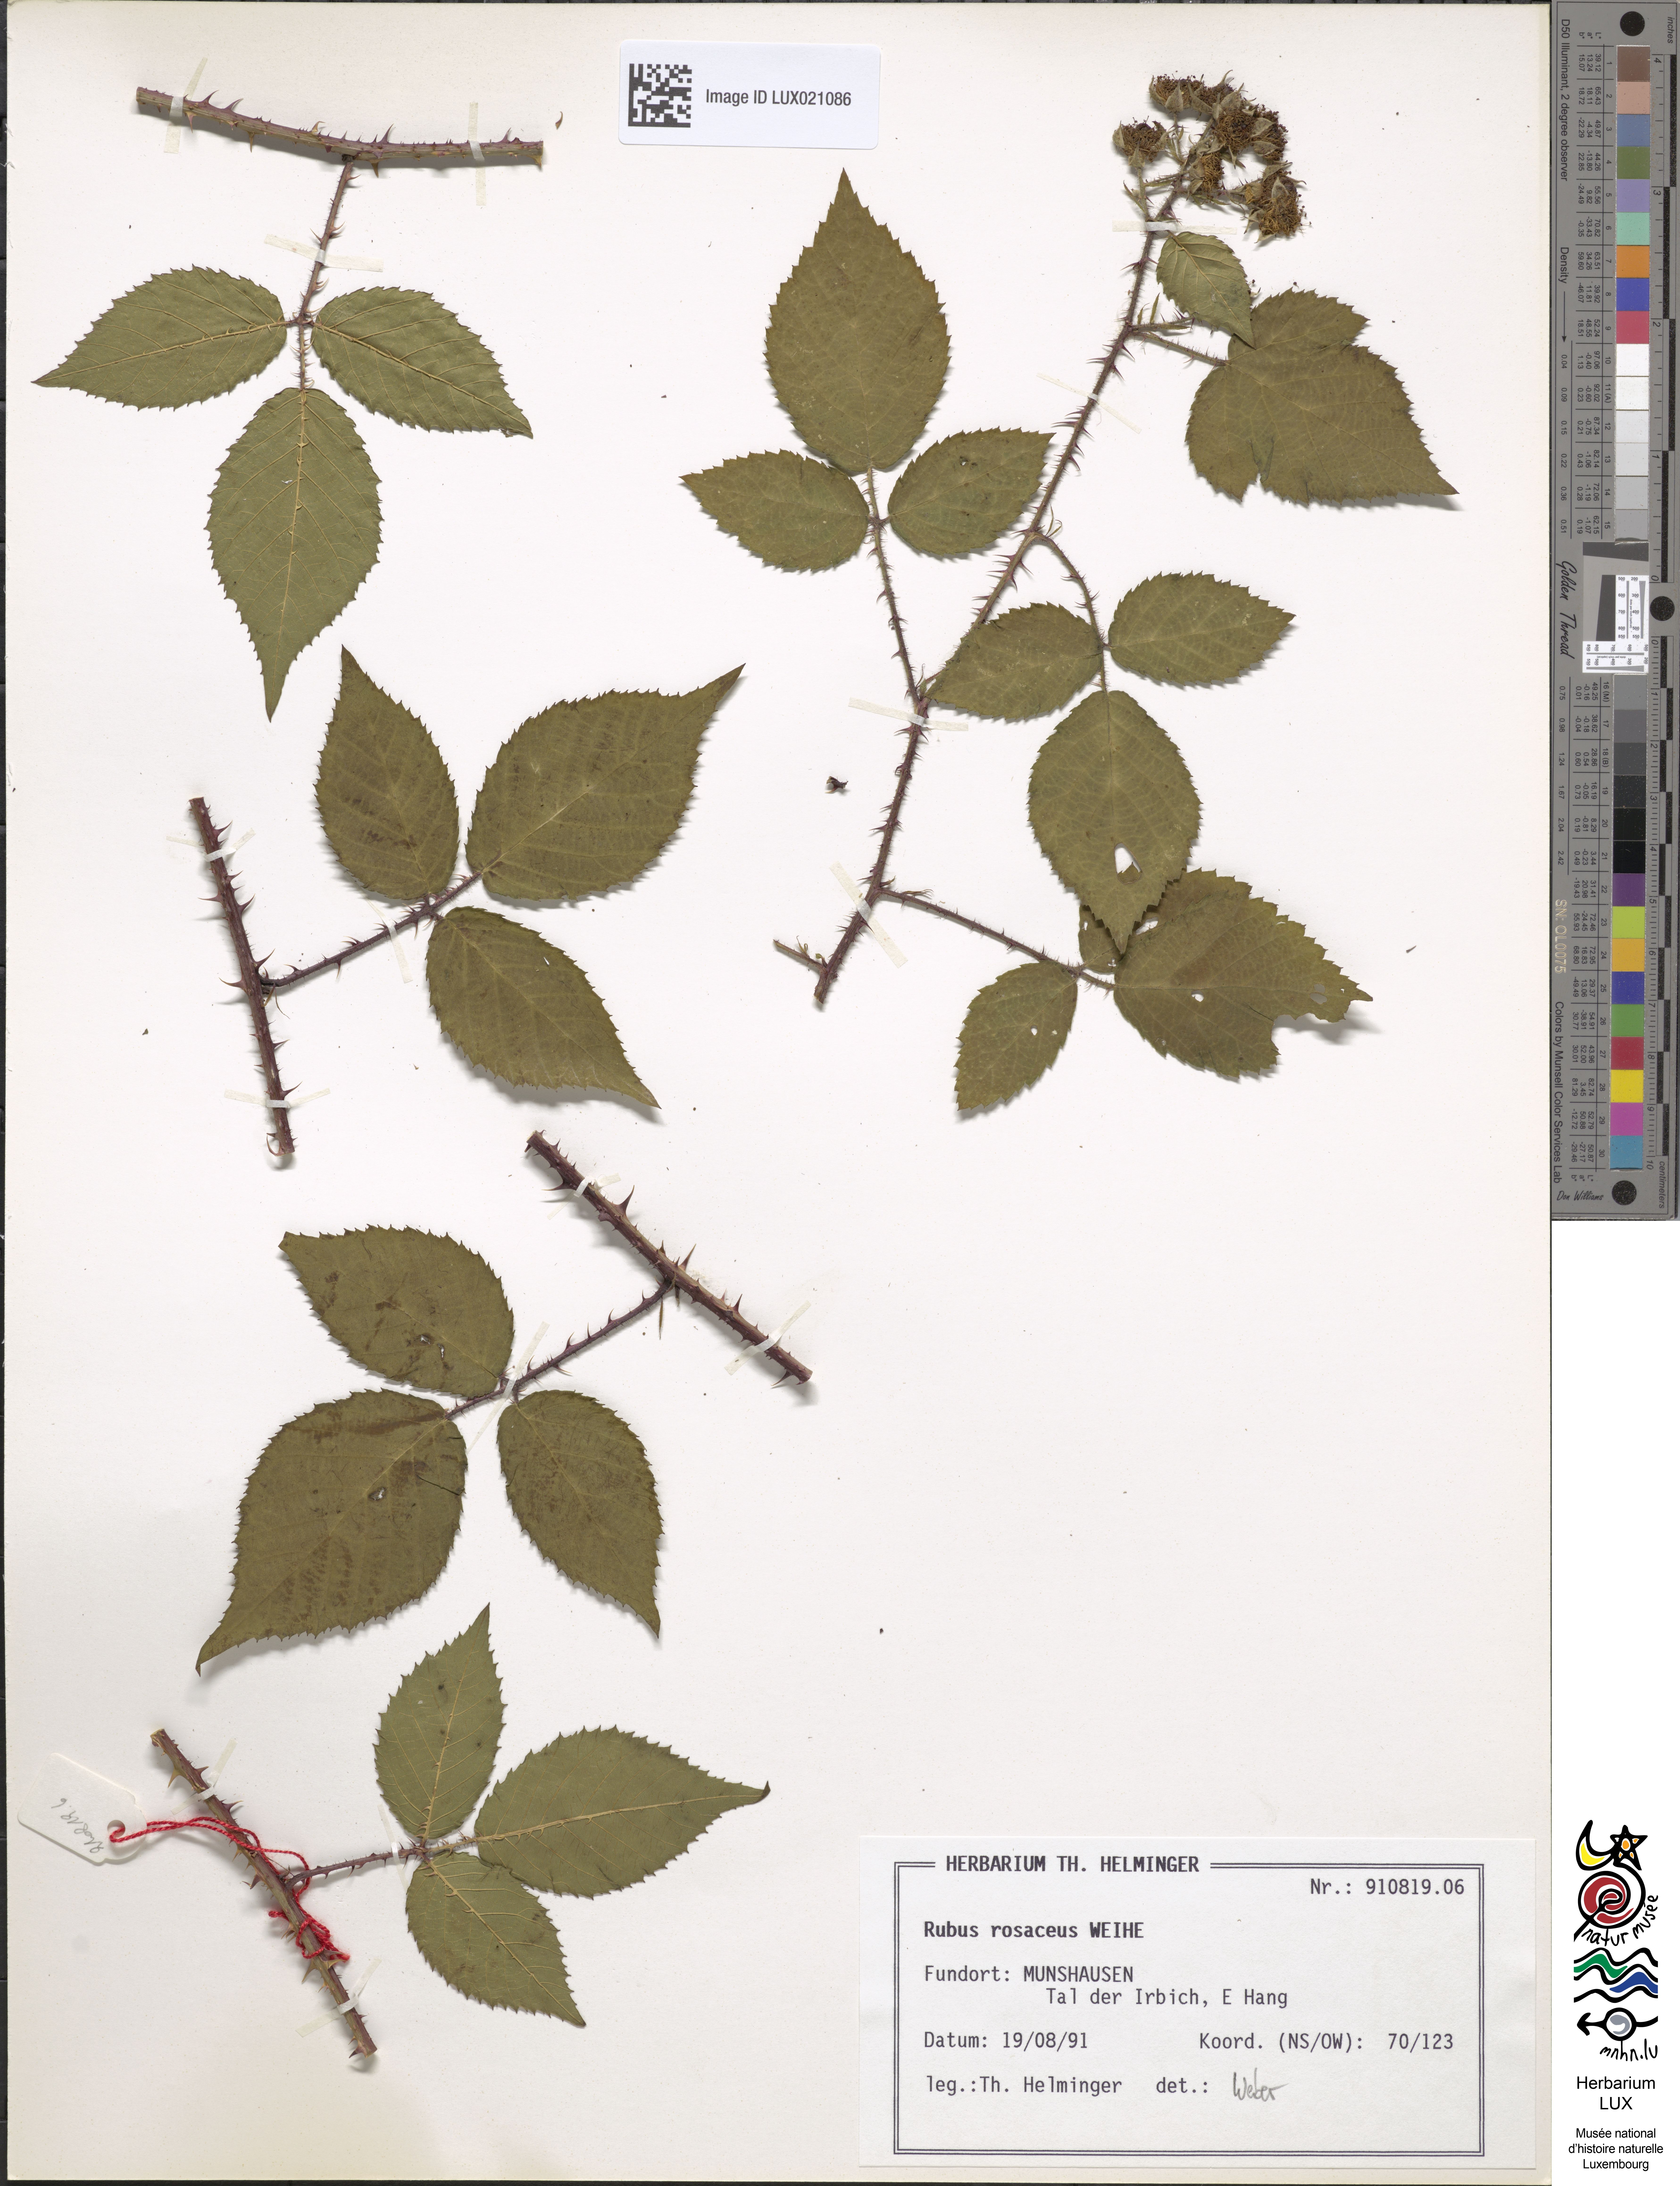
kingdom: Plantae
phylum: Tracheophyta
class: Magnoliopsida
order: Rosales
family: Rosaceae
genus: Rubus
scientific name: Rubus rosaceus
